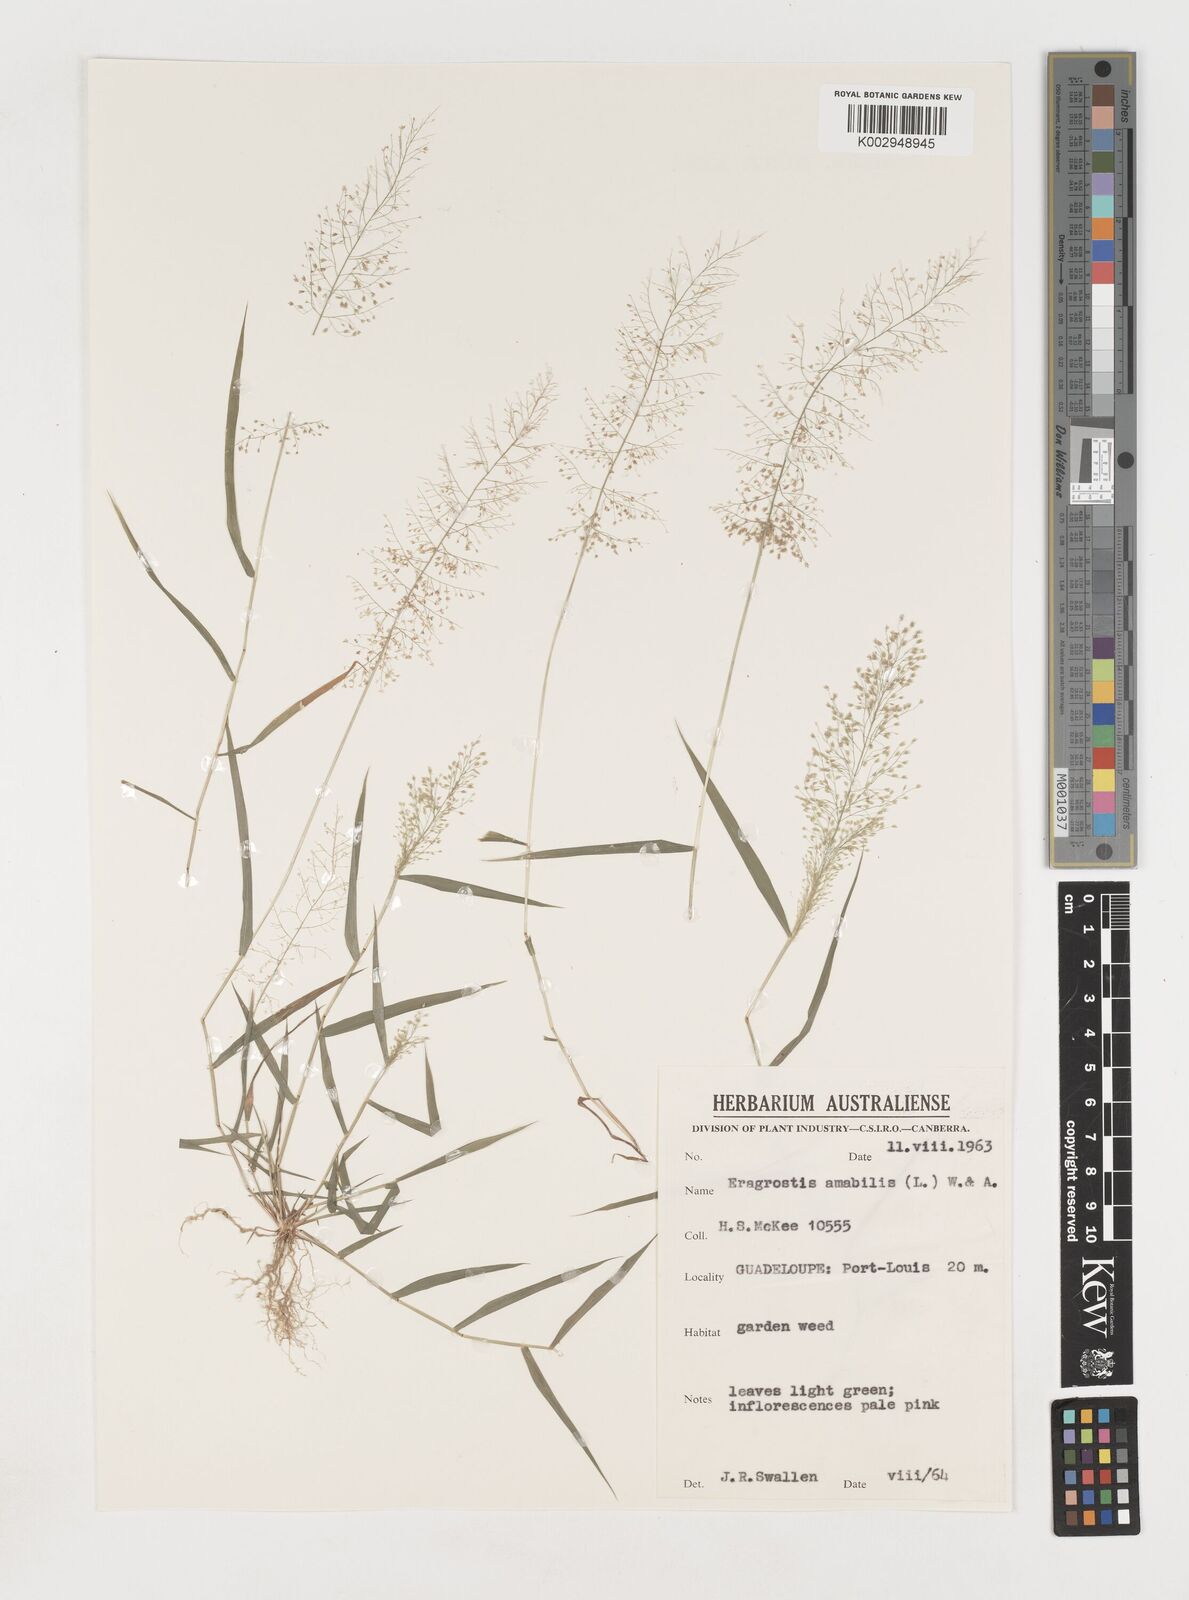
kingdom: Plantae
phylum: Tracheophyta
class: Liliopsida
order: Poales
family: Poaceae
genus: Eragrostis
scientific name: Eragrostis tenella
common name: Japanese lovegrass
